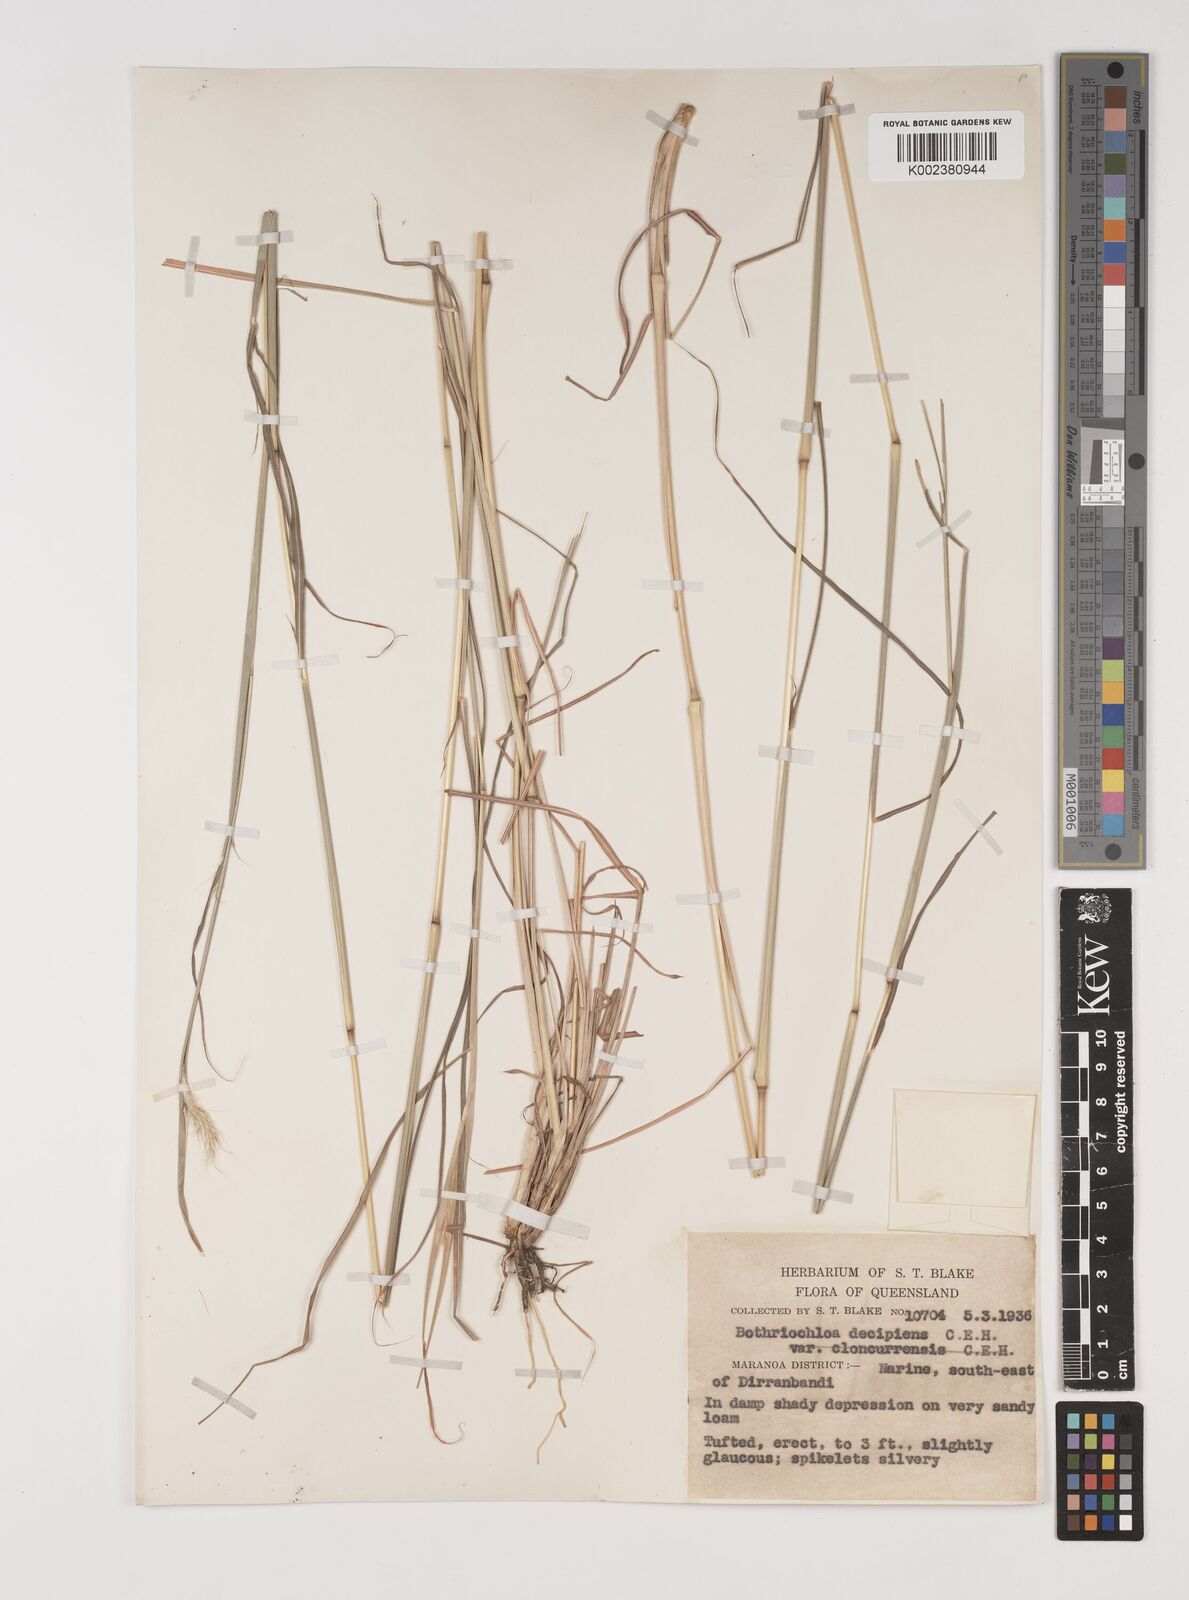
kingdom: Plantae
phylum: Tracheophyta
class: Liliopsida
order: Poales
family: Poaceae
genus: Bothriochloa
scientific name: Bothriochloa decipiens
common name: Pitted-bluegrass
